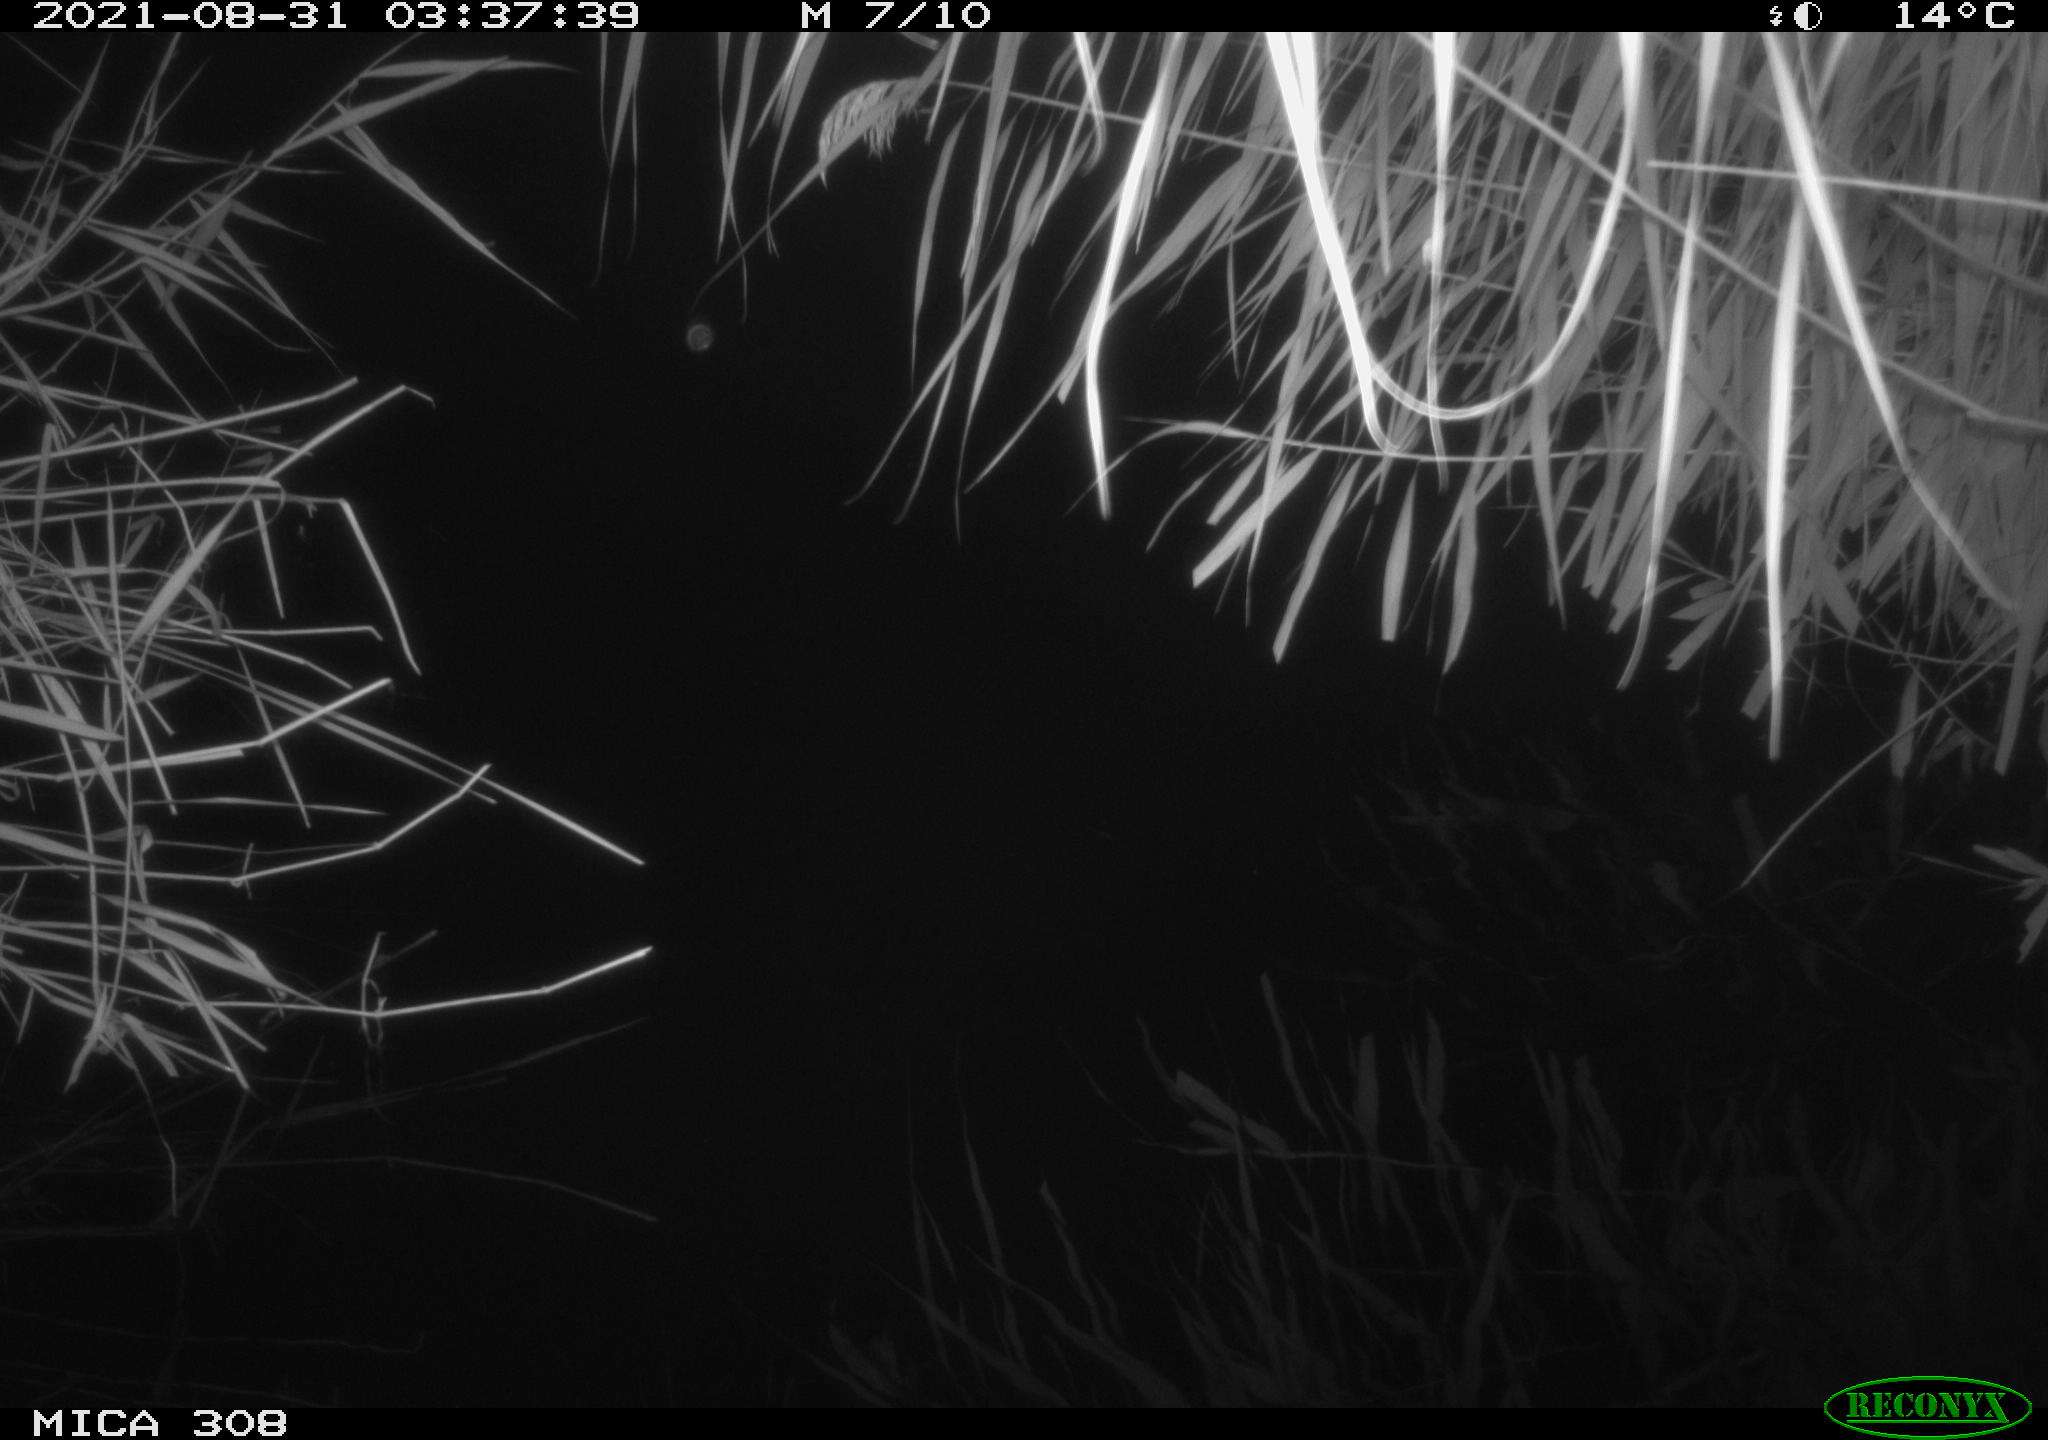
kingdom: Animalia
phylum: Chordata
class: Mammalia
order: Rodentia
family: Muridae
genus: Rattus
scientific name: Rattus norvegicus
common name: Brown rat
